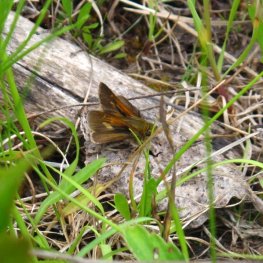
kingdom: Animalia
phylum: Arthropoda
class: Insecta
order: Lepidoptera
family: Hesperiidae
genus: Polites
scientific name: Polites themistocles
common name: Tawny-edged Skipper
